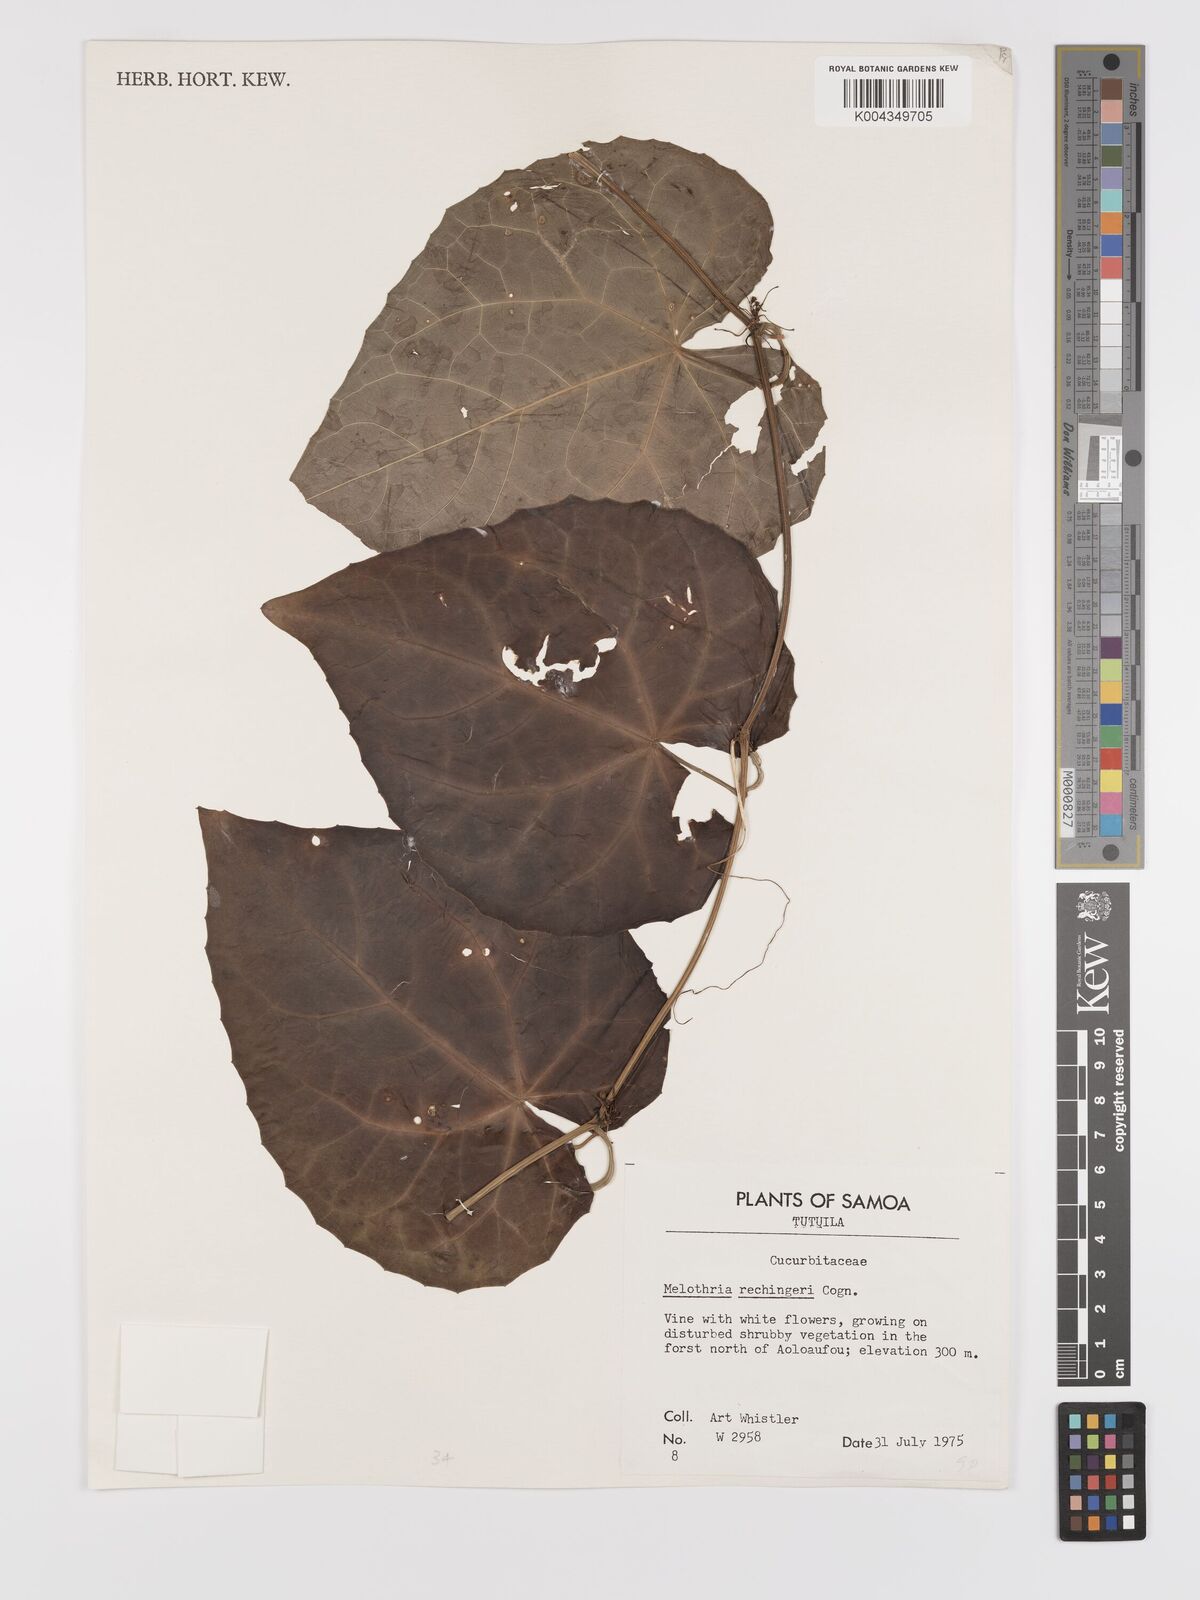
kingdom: Plantae
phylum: Tracheophyta
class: Magnoliopsida
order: Cucurbitales
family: Cucurbitaceae
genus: Zehneria
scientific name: Zehneria
